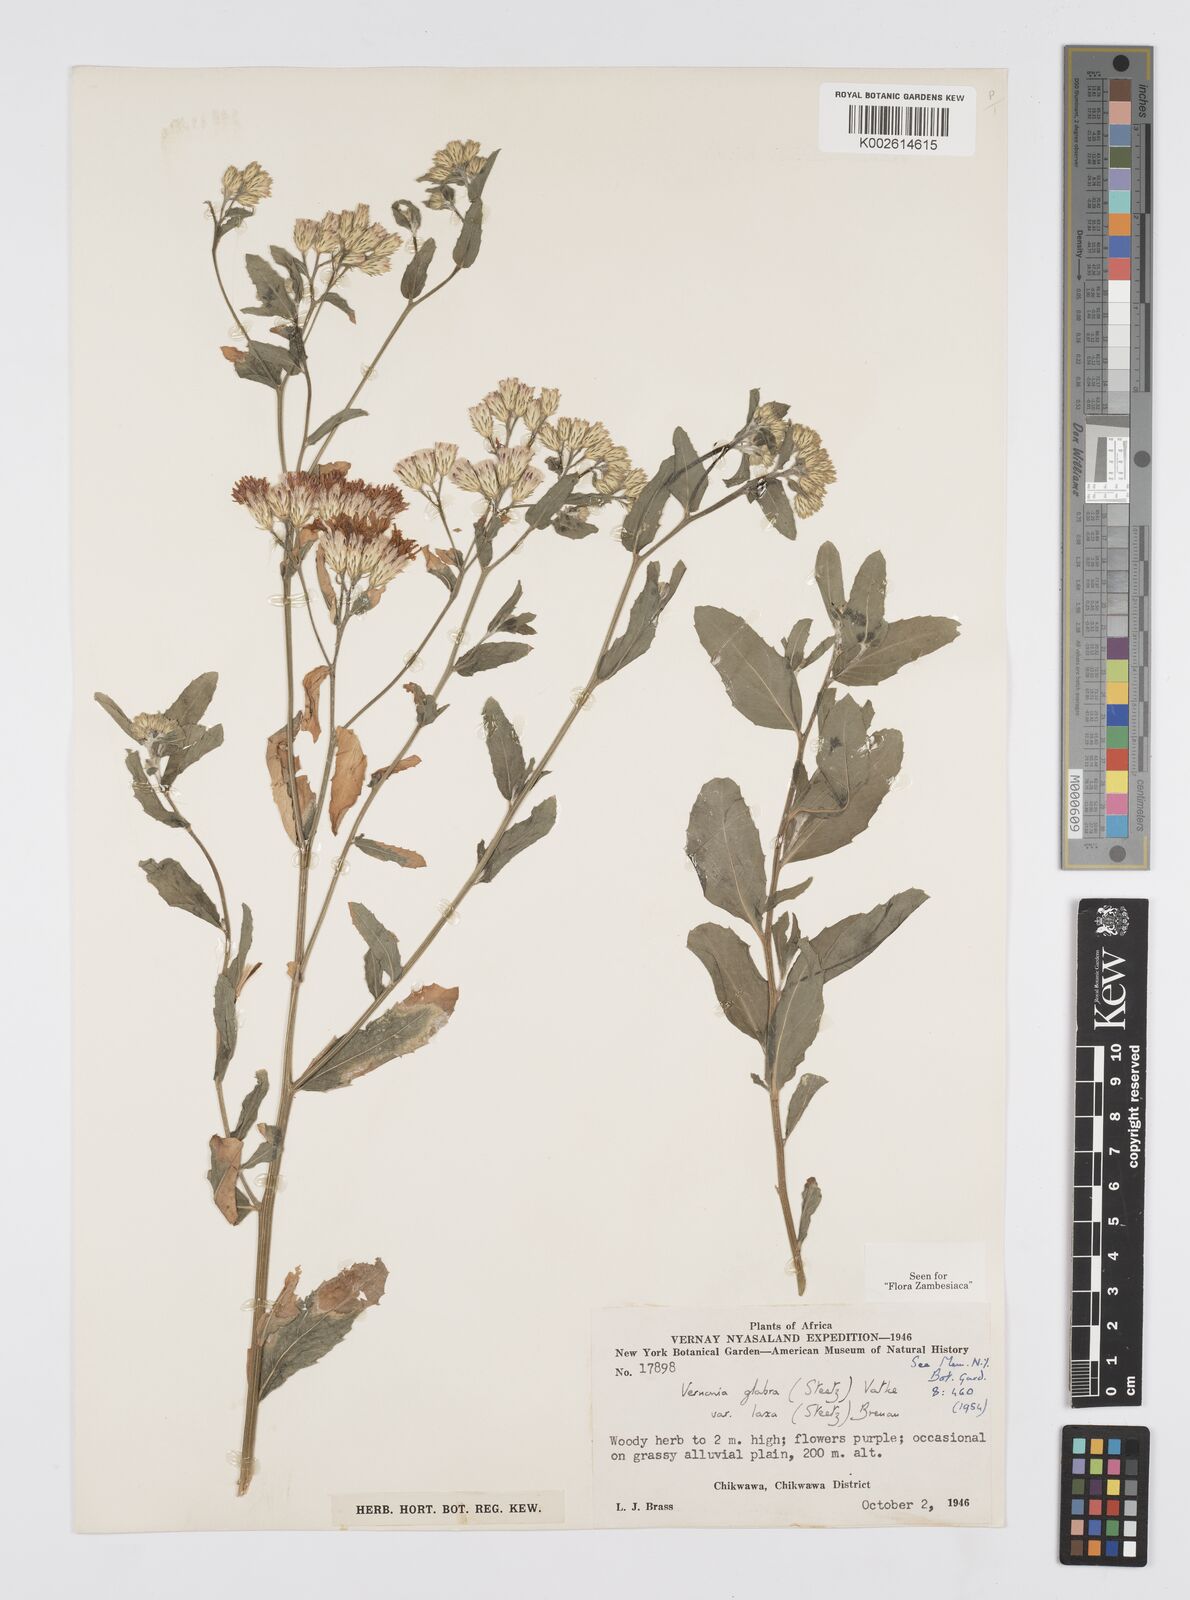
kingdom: Plantae
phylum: Tracheophyta
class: Magnoliopsida
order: Asterales
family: Asteraceae
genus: Linzia
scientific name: Linzia glabra
